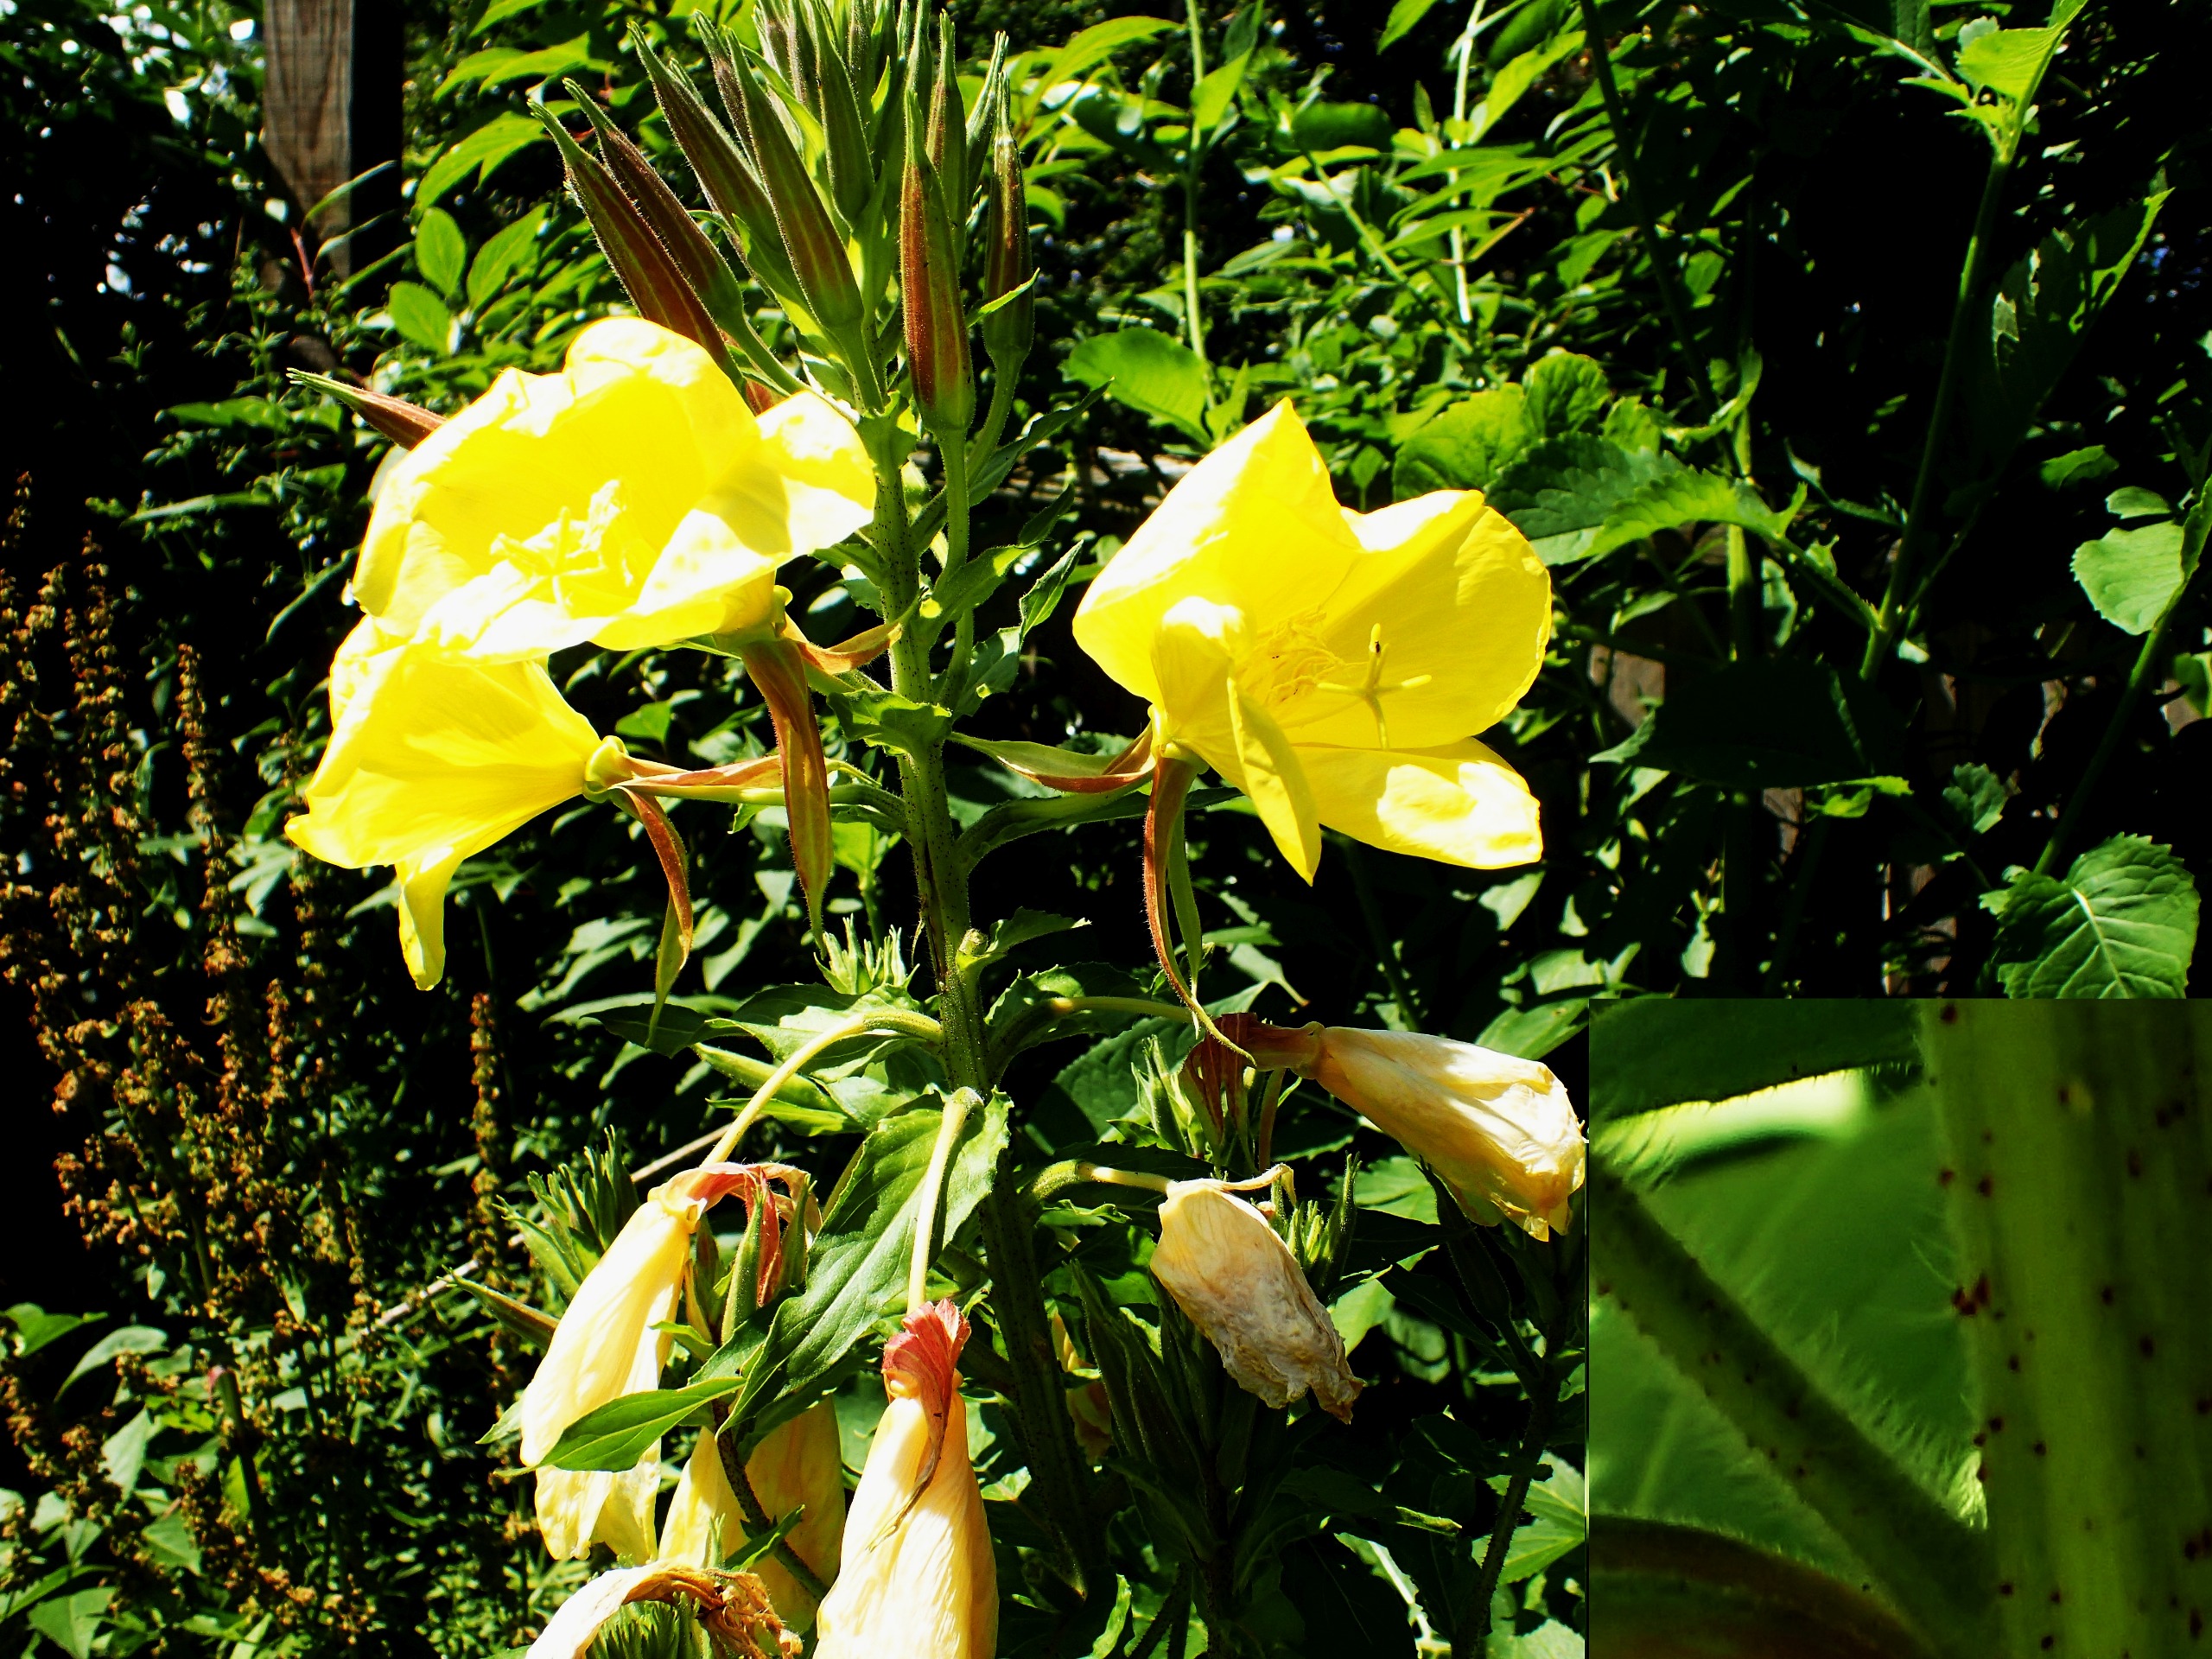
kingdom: Plantae
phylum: Tracheophyta
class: Magnoliopsida
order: Myrtales
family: Onagraceae
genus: Oenothera
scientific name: Oenothera glazioviana
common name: Kæmpe-natlys
